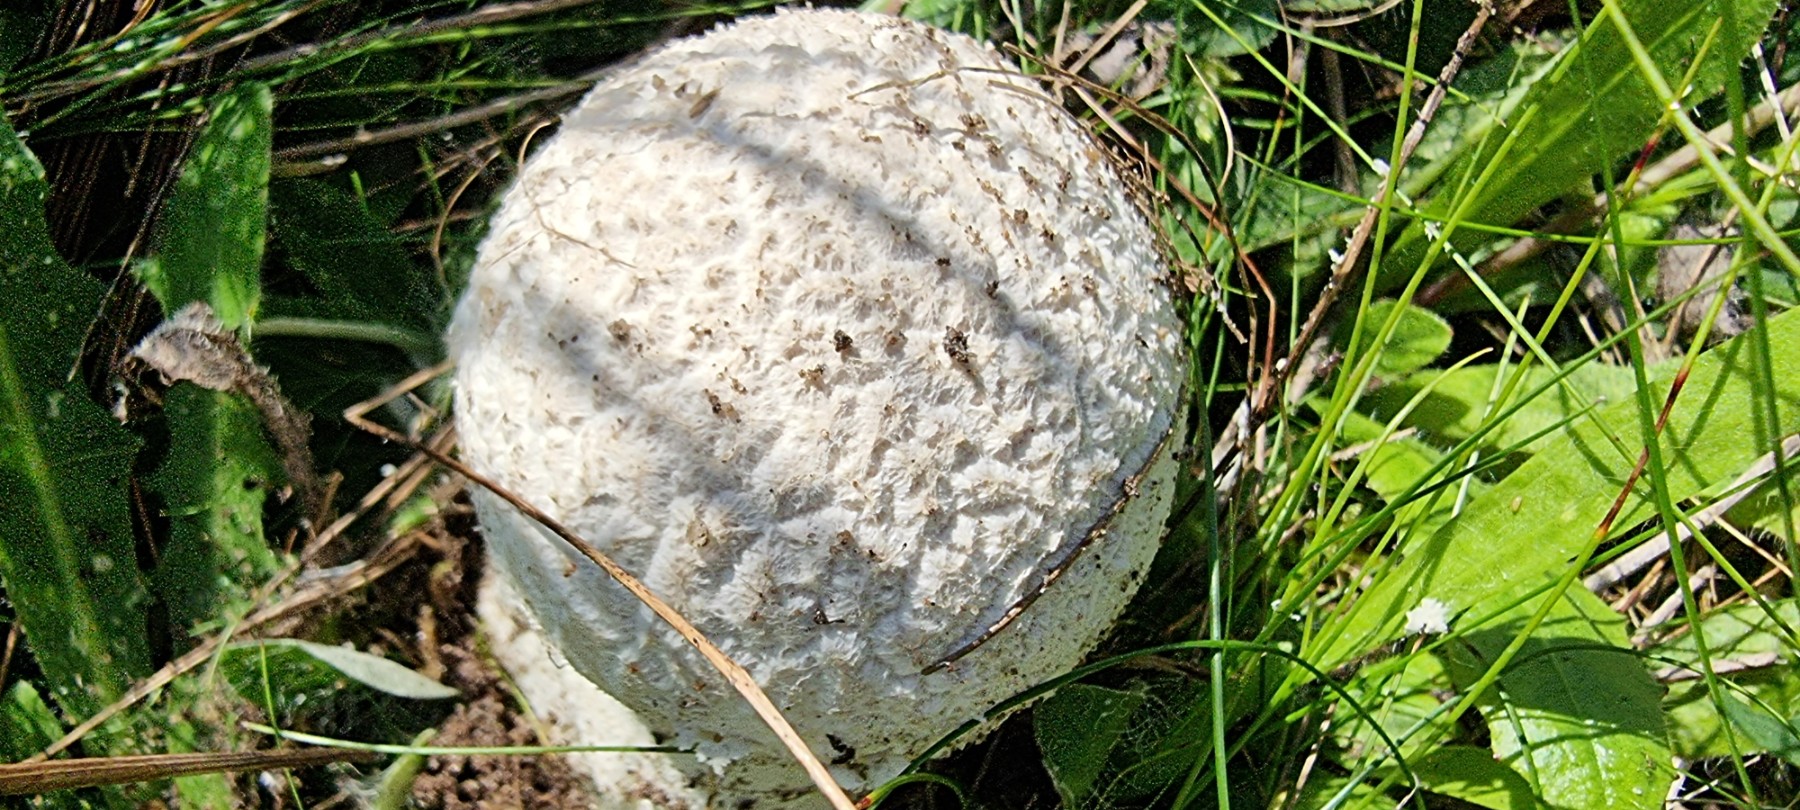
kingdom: Fungi
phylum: Basidiomycota
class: Agaricomycetes
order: Agaricales
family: Lycoperdaceae
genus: Bovistella
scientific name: Bovistella utriformis
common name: skællet støvbold
